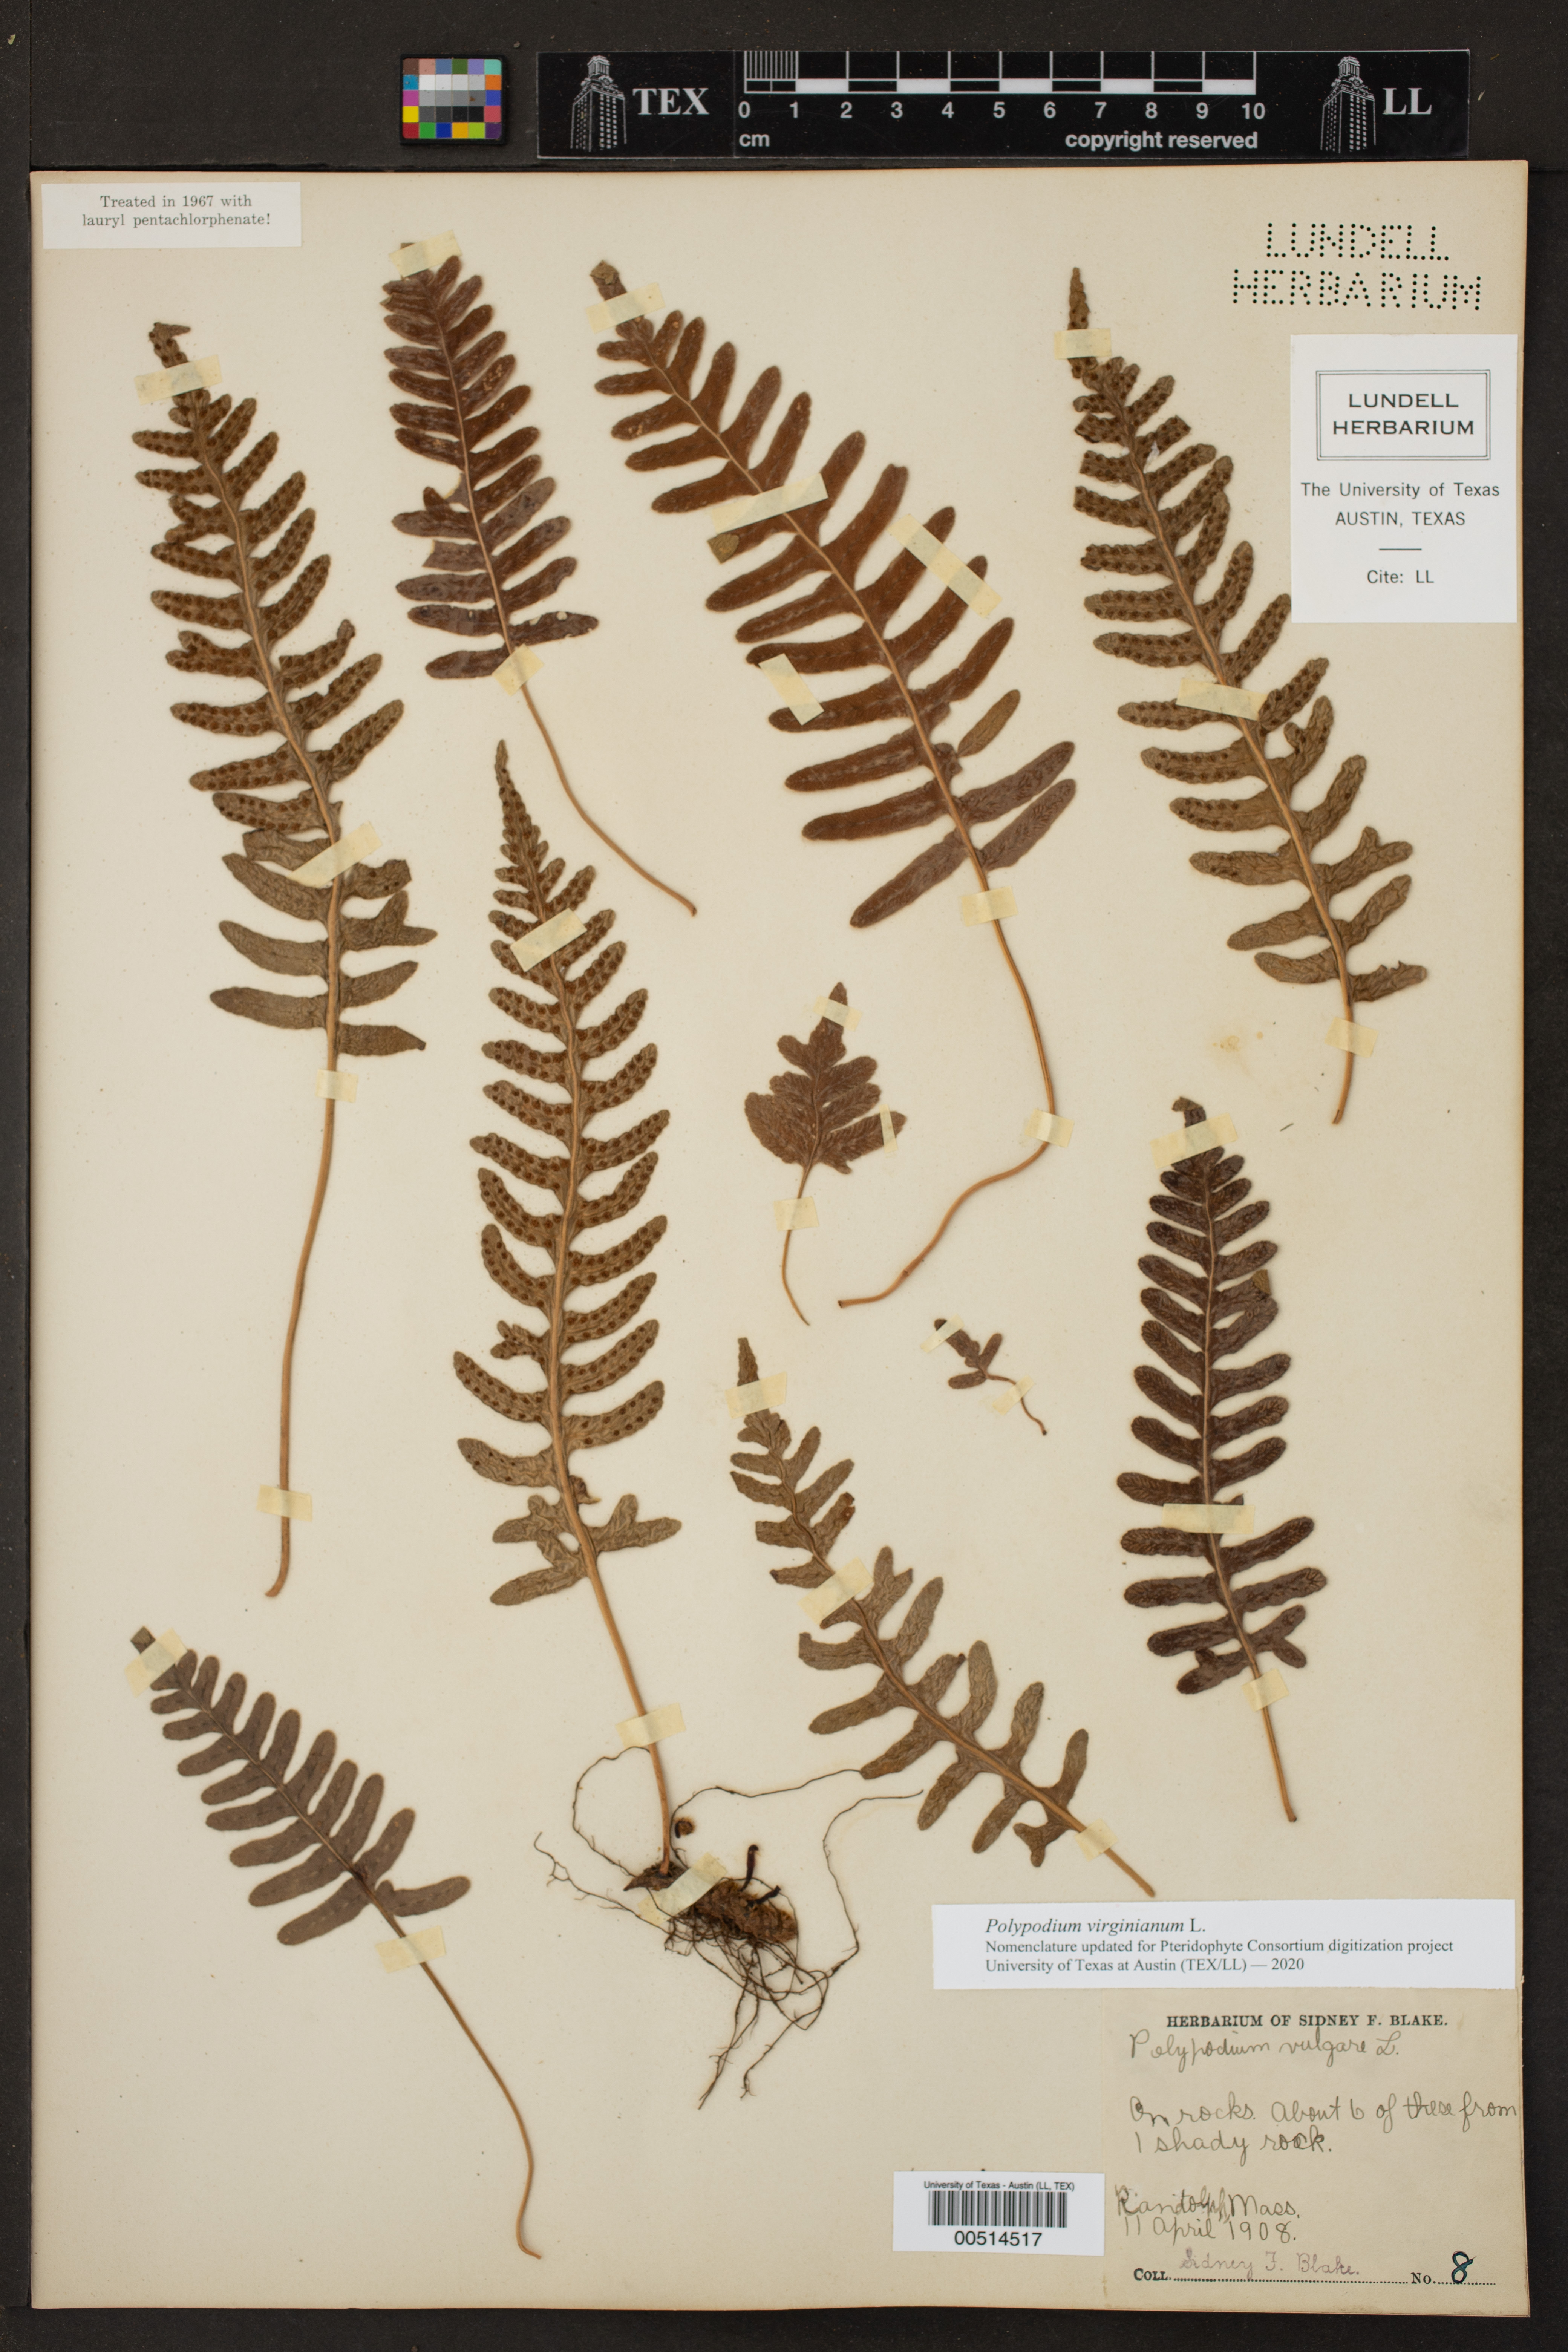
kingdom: Plantae
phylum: Tracheophyta
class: Polypodiopsida
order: Polypodiales
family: Polypodiaceae
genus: Polypodium
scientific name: Polypodium virginianum
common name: American wall fern
